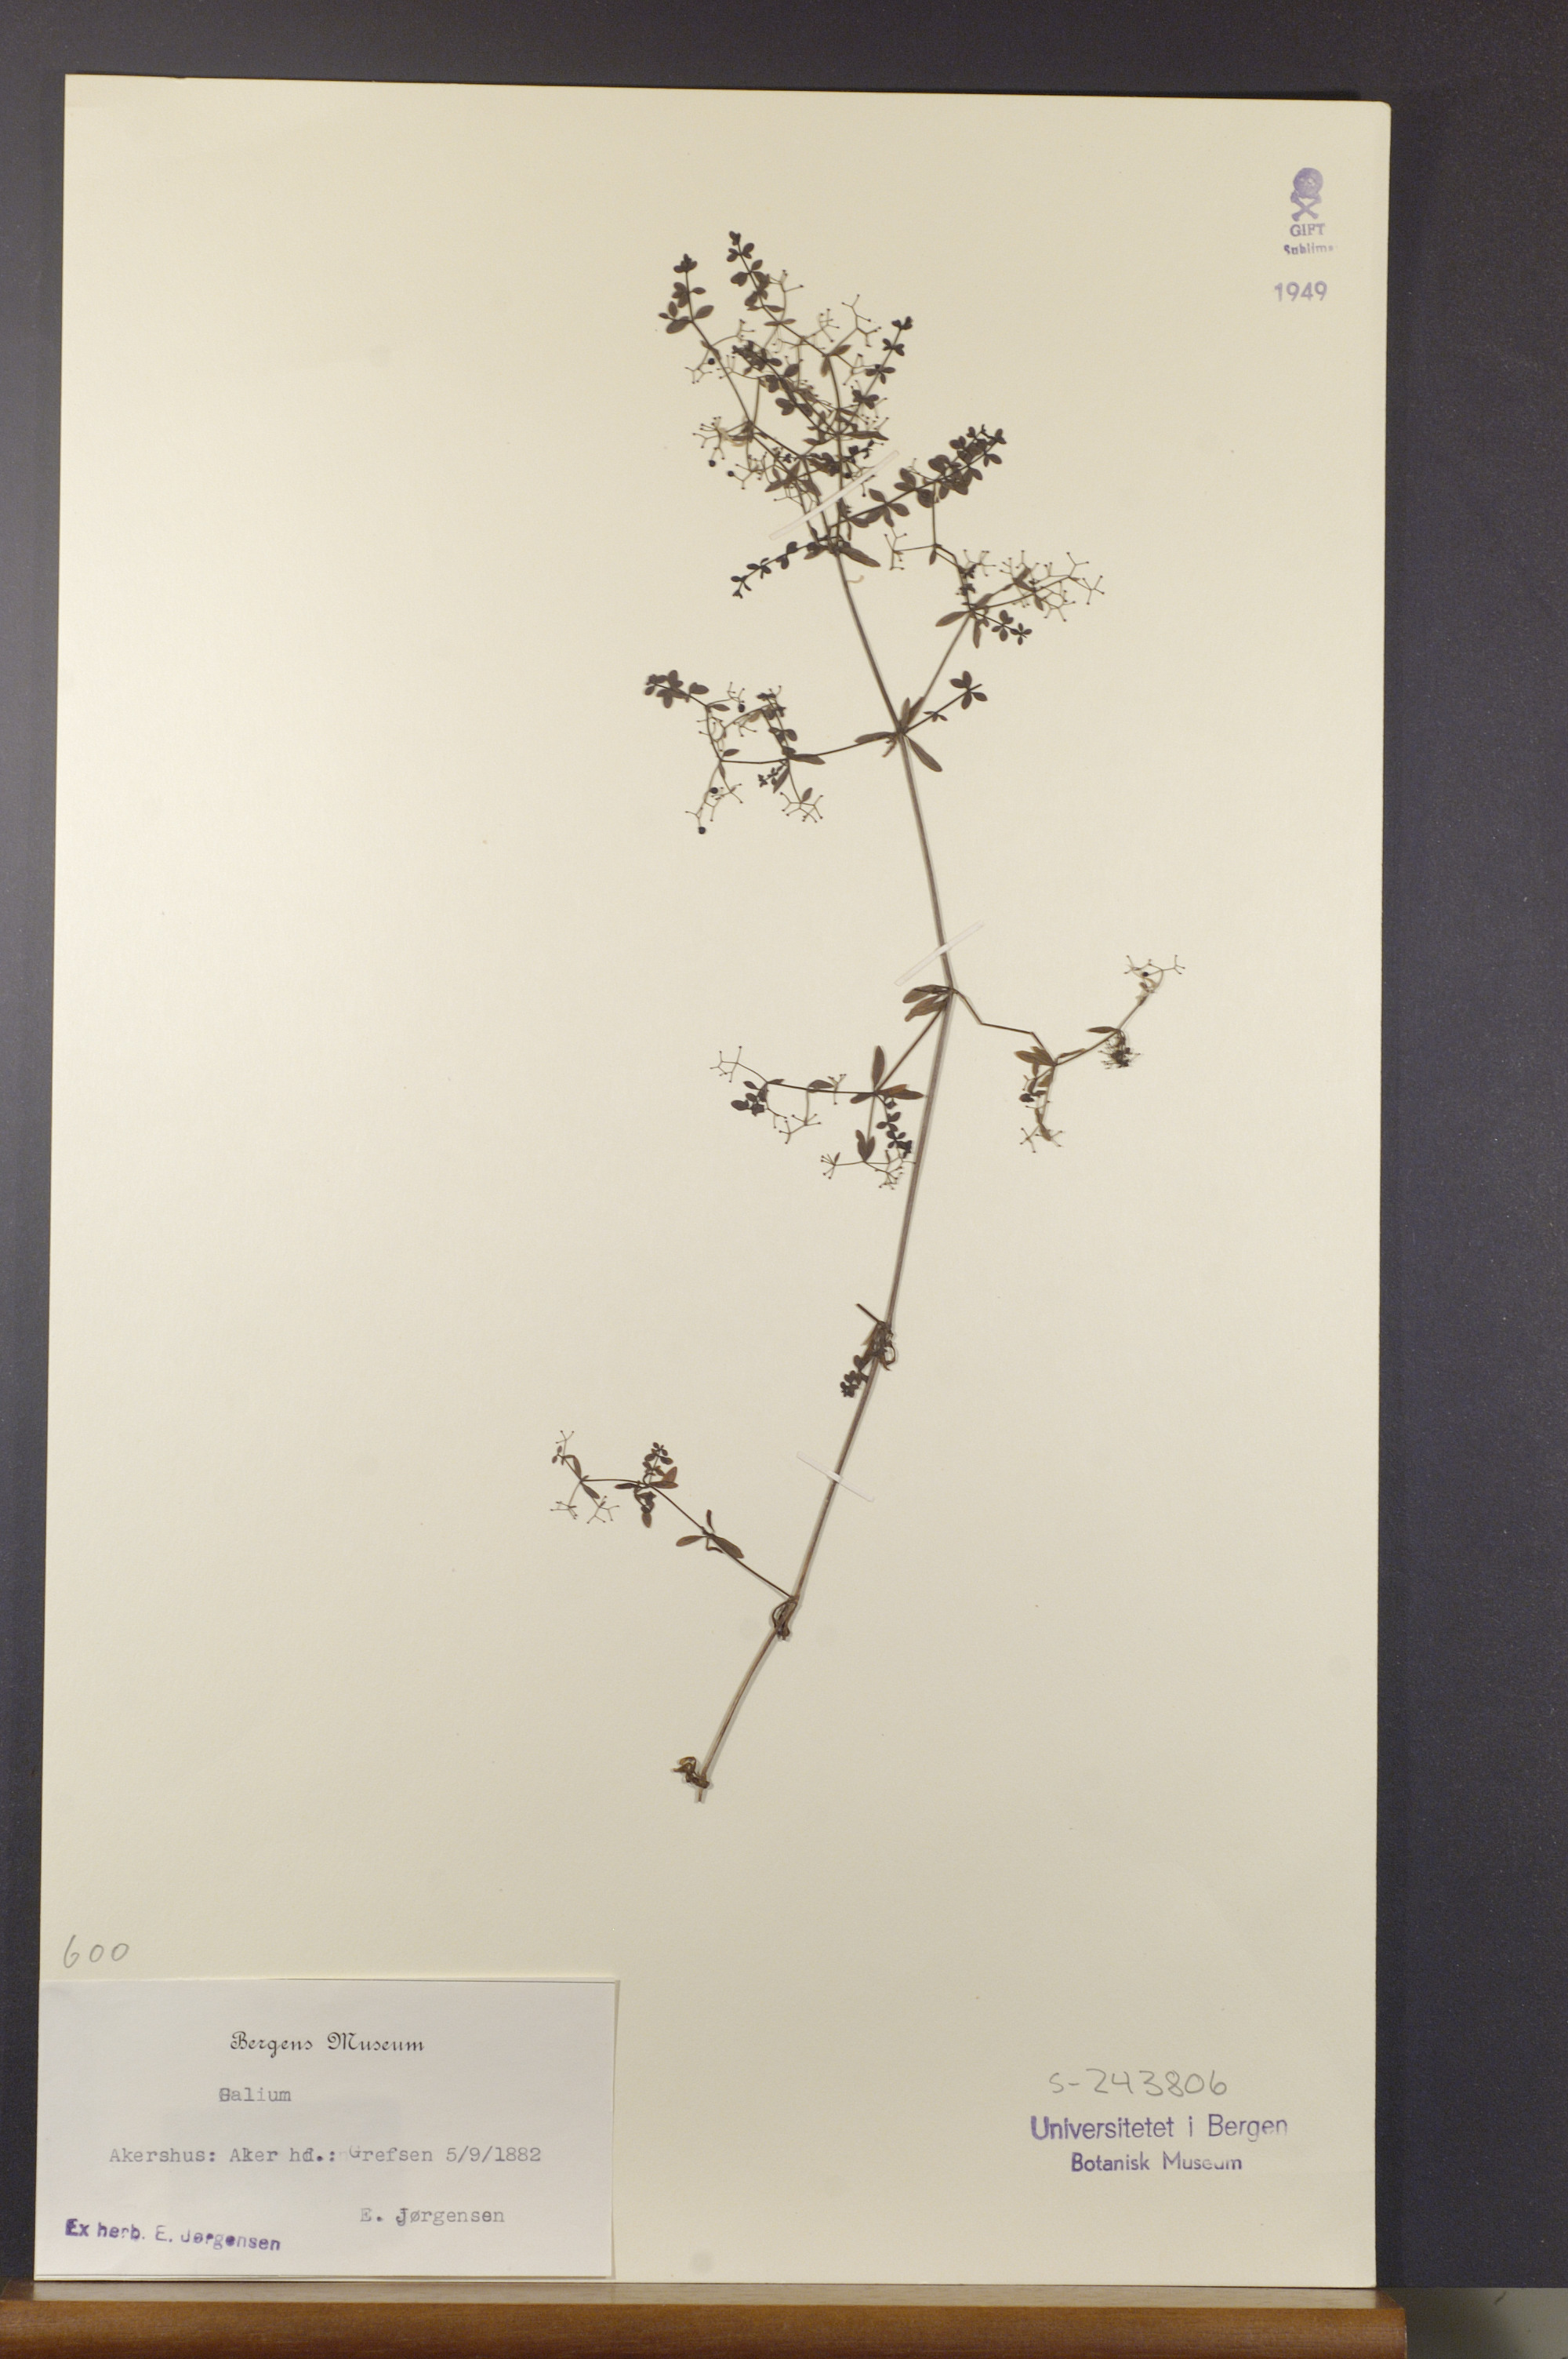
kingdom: Plantae
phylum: Tracheophyta
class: Magnoliopsida
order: Gentianales
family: Rubiaceae
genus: Galium
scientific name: Galium
